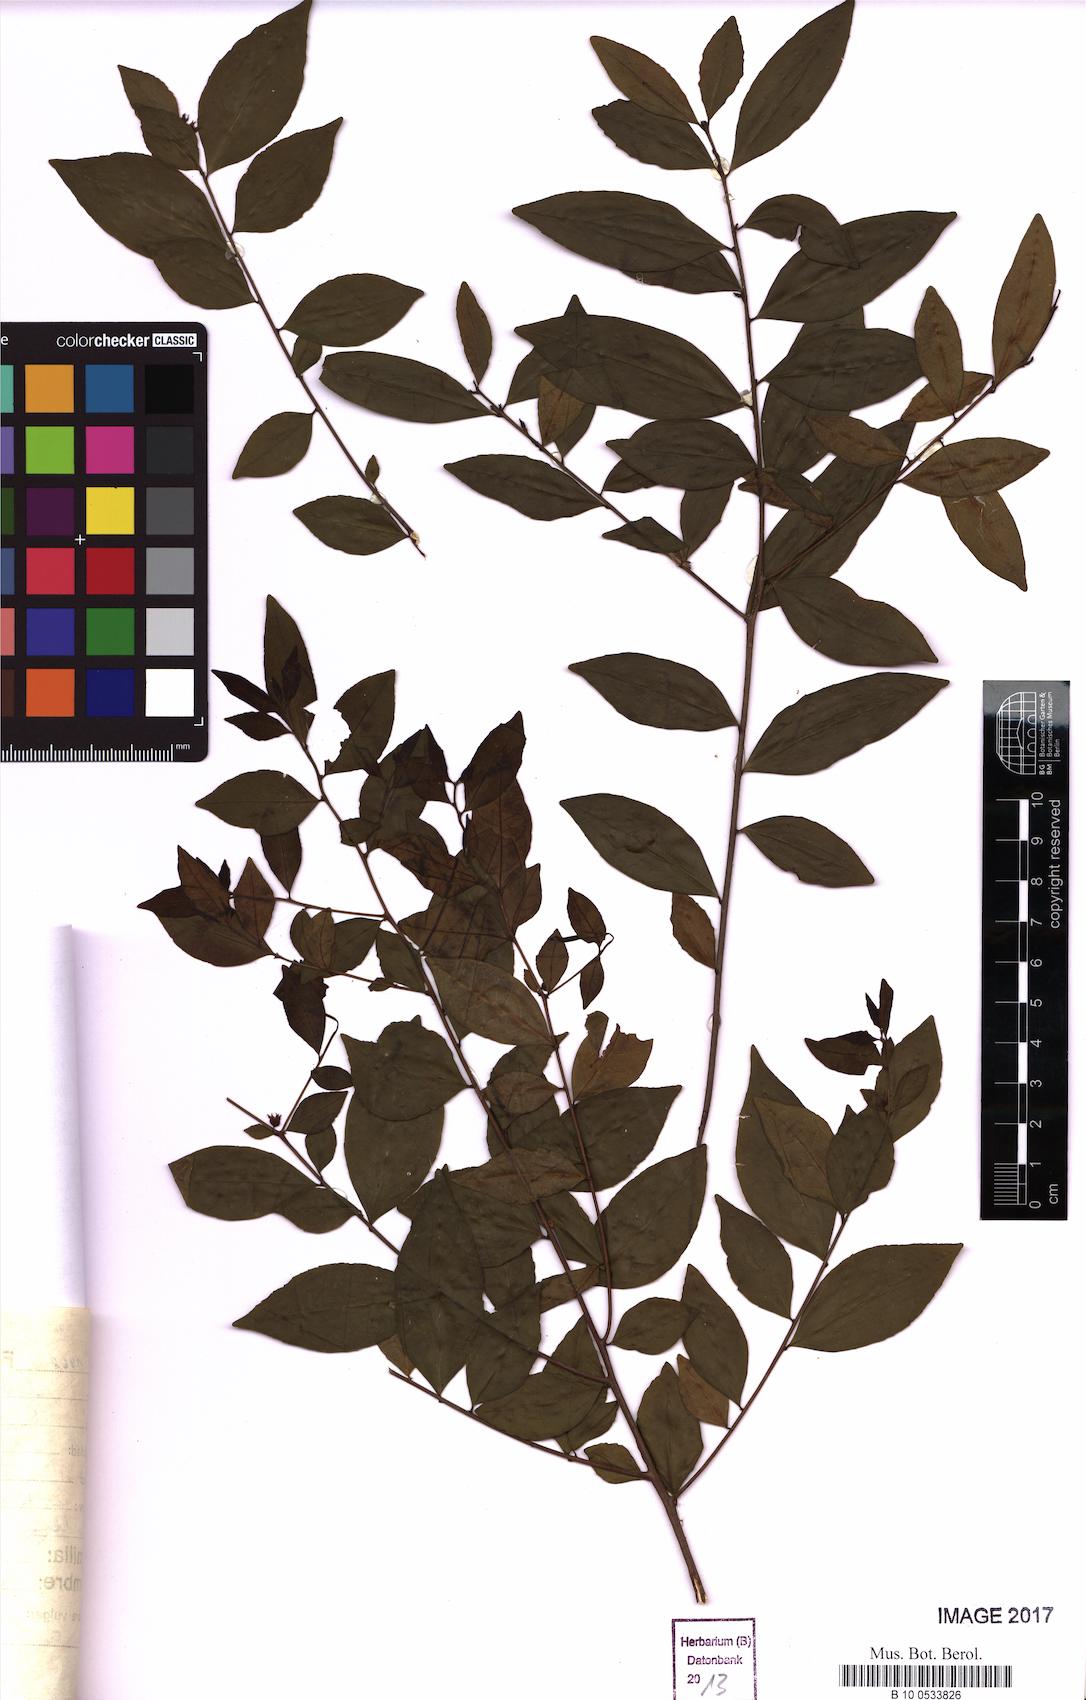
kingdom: Plantae
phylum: Tracheophyta
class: Magnoliopsida
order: Rosales
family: Rhamnaceae
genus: Condalia
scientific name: Condalia maytenoides
